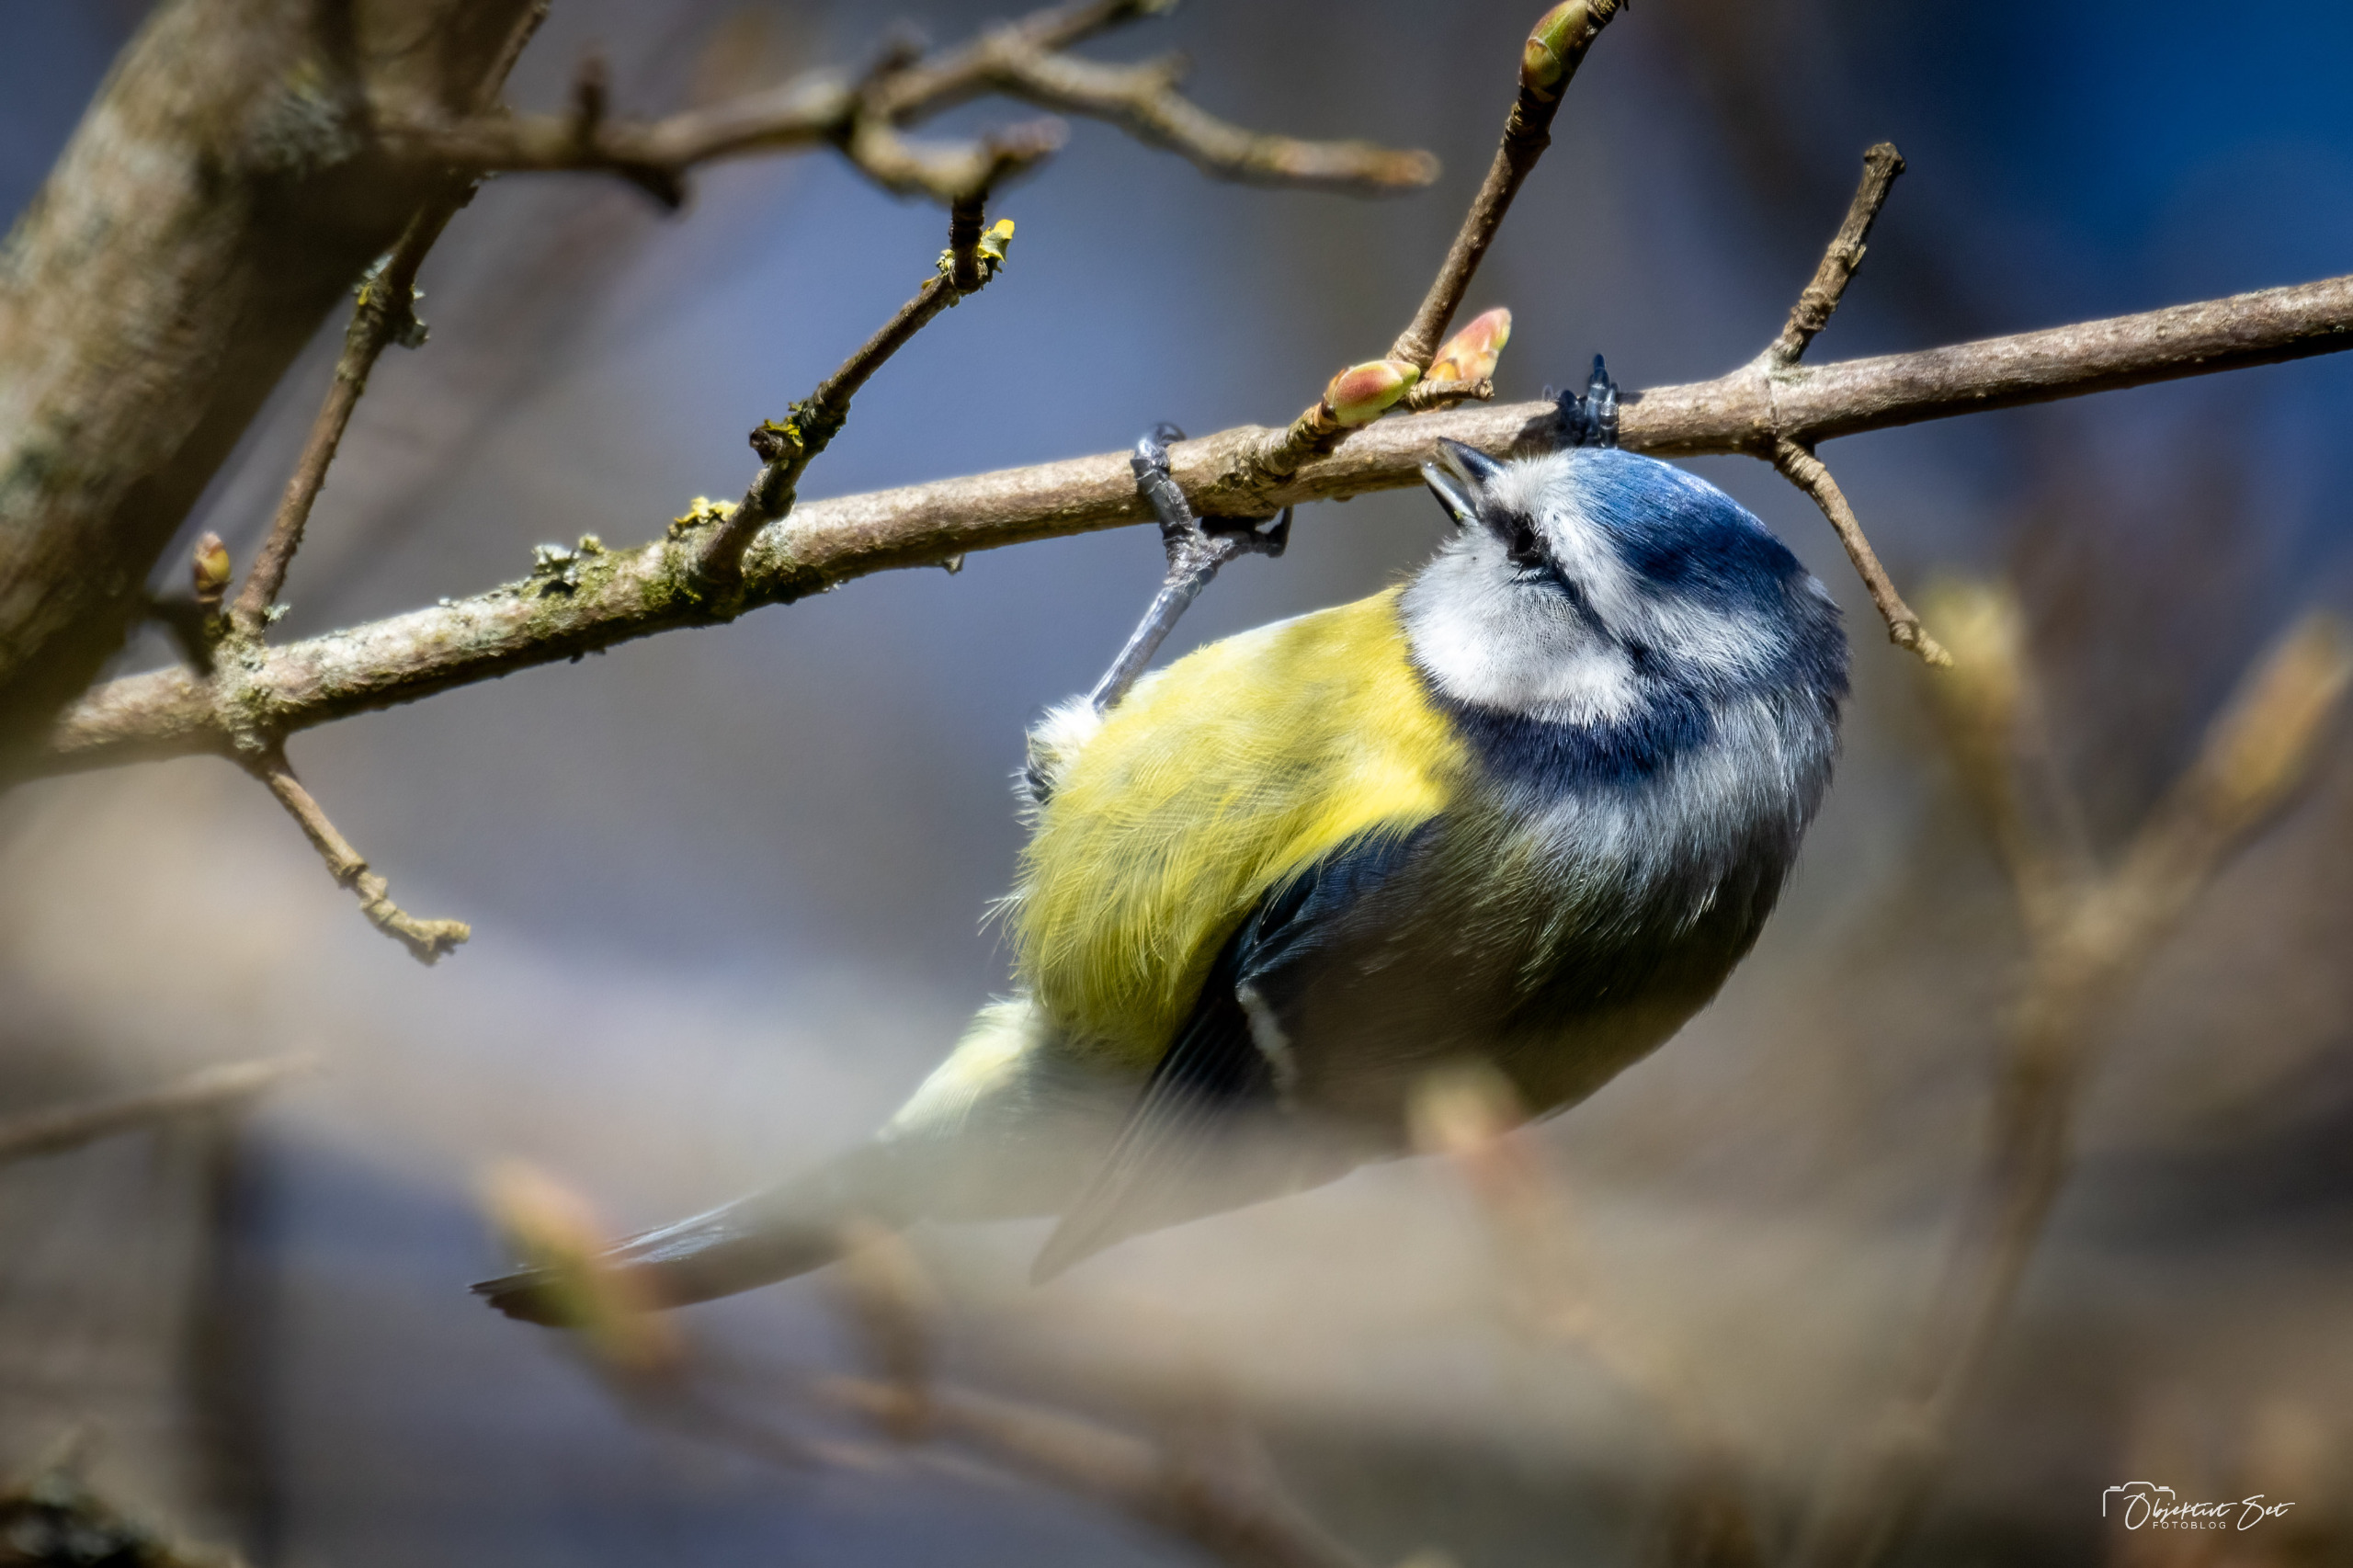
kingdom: Animalia
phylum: Chordata
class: Aves
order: Passeriformes
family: Paridae
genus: Cyanistes
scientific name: Cyanistes caeruleus
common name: Blåmejse
